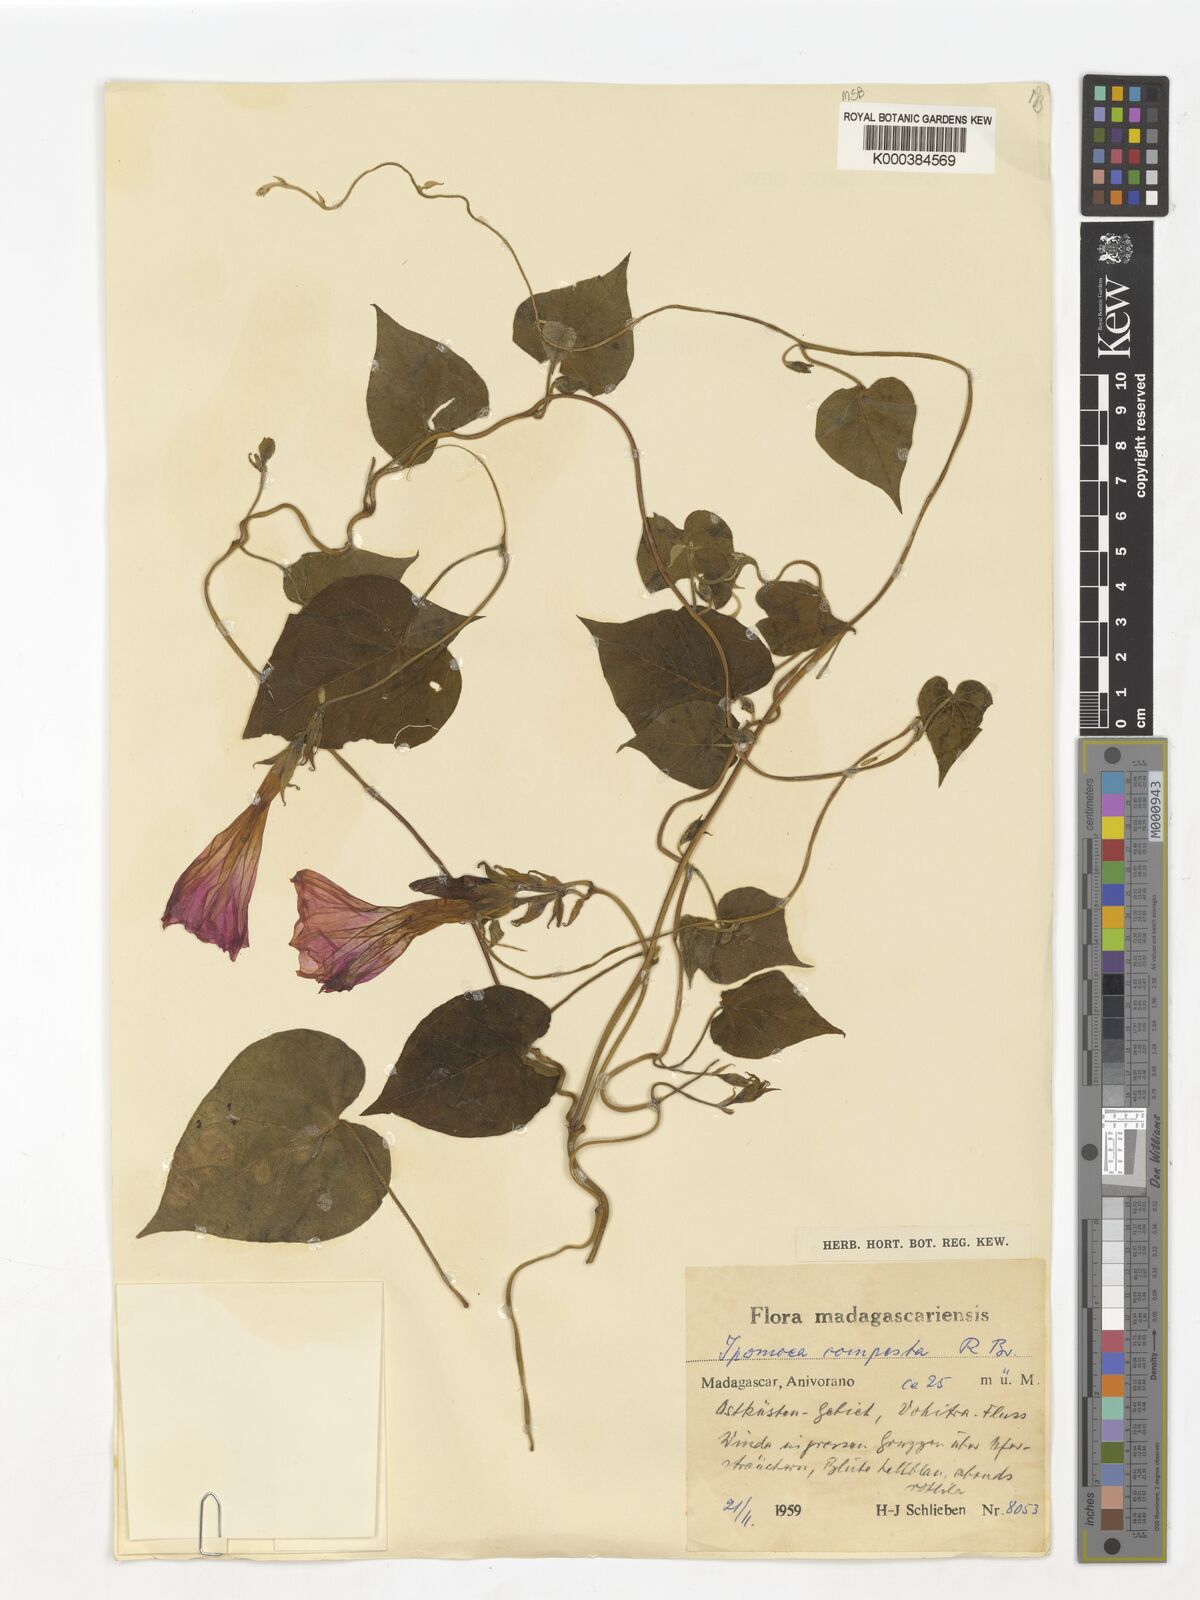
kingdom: Plantae
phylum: Tracheophyta
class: Magnoliopsida
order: Solanales
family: Convolvulaceae
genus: Ipomoea
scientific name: Ipomoea indica
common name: Blue dawnflower
